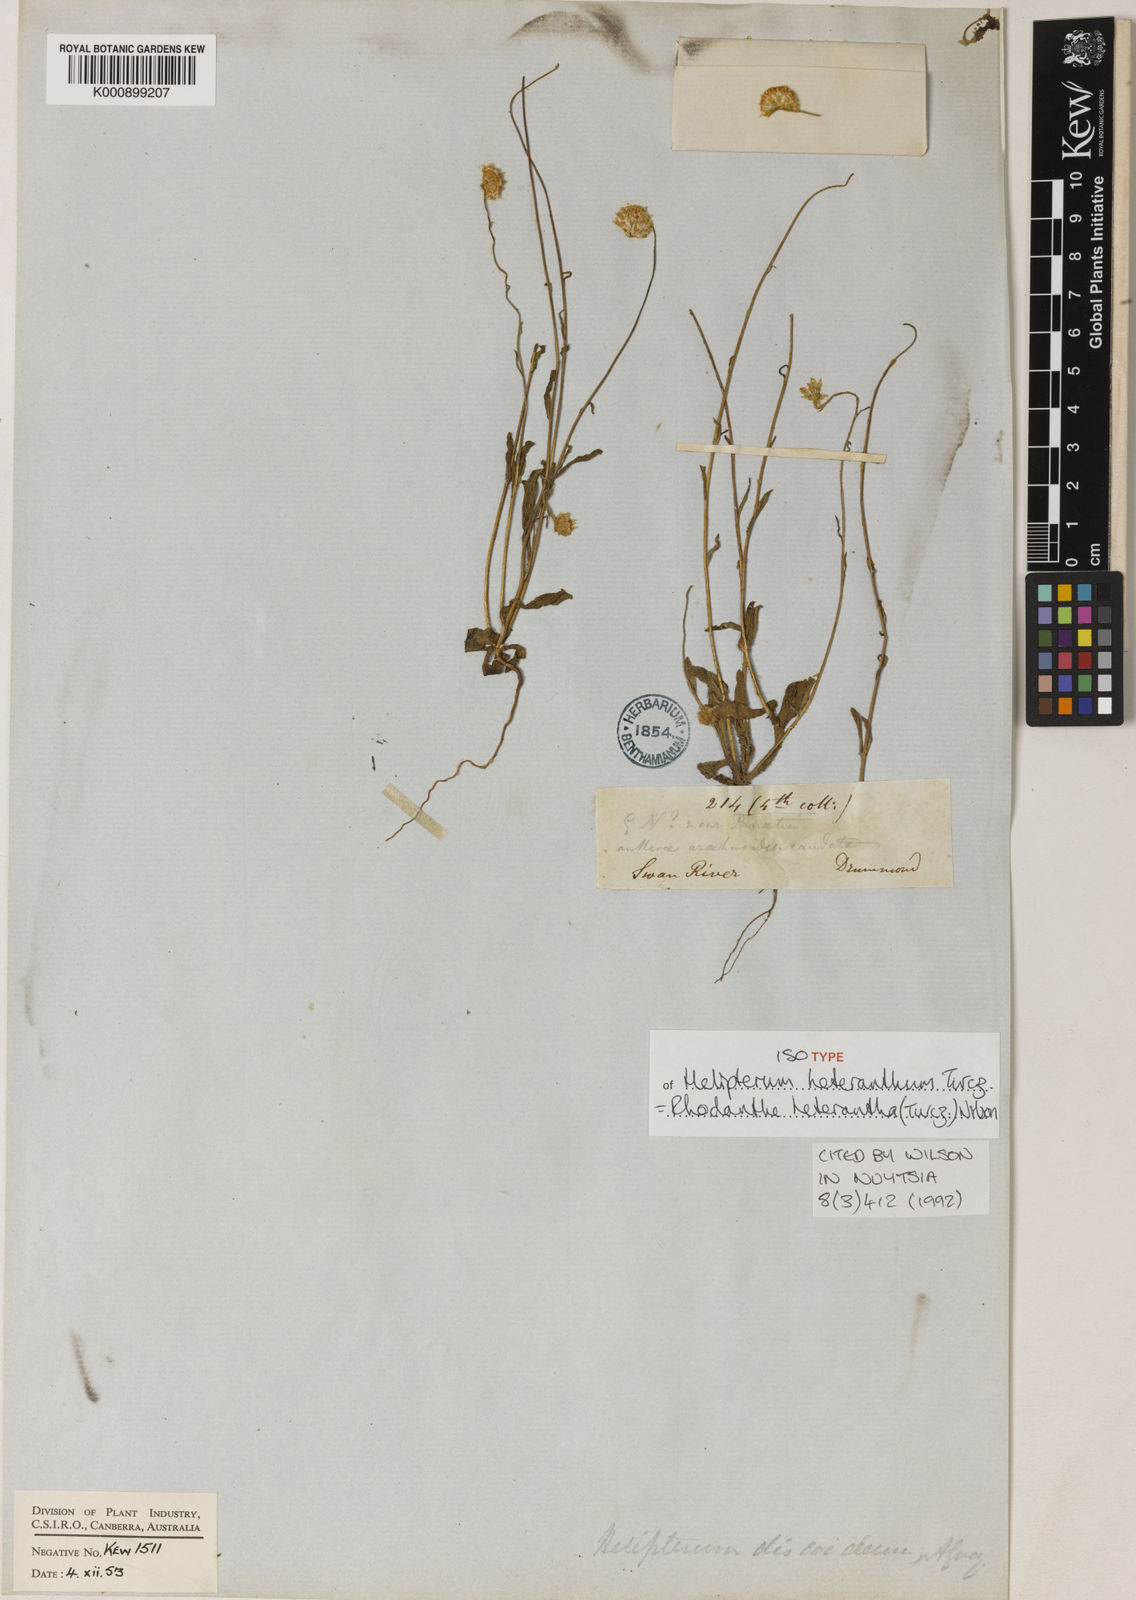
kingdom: Plantae
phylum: Tracheophyta
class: Magnoliopsida
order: Asterales
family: Asteraceae
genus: Rhodanthe
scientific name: Rhodanthe heterantha
